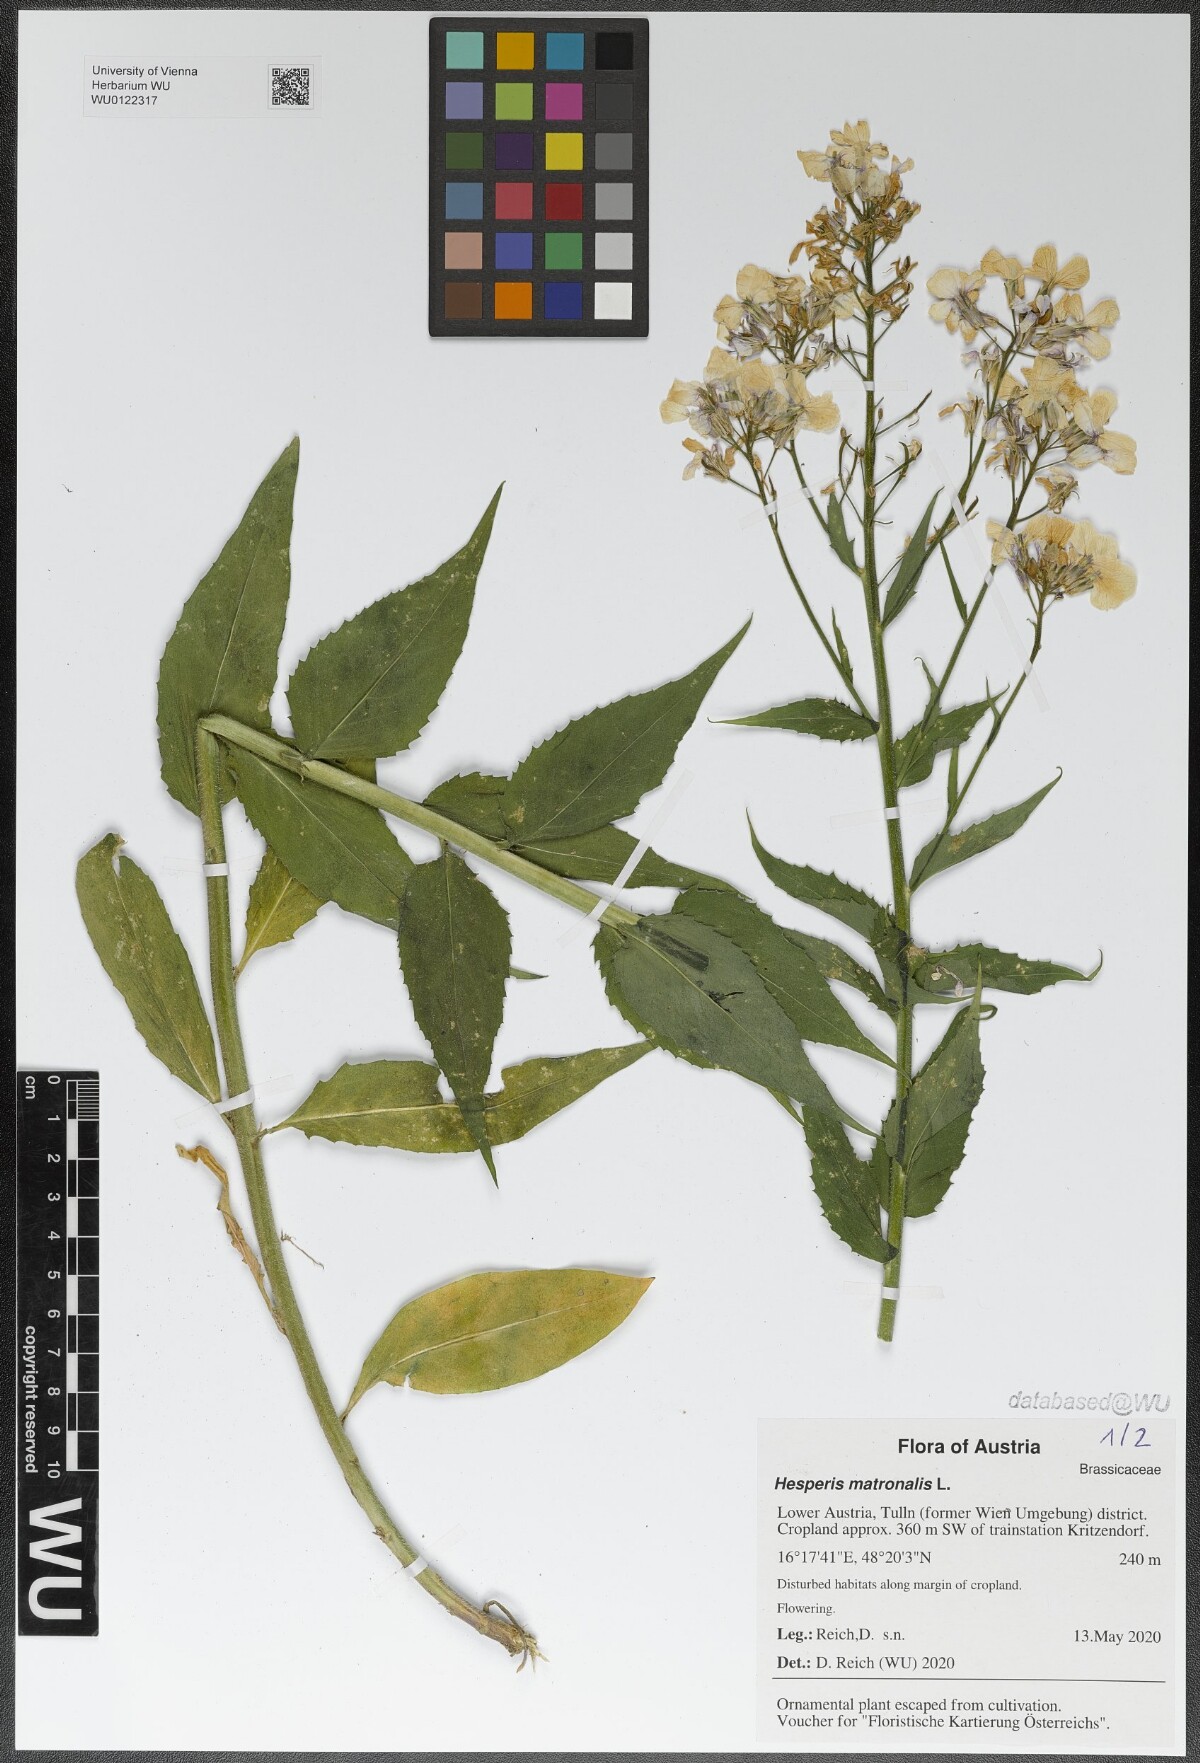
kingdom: Plantae
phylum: Tracheophyta
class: Magnoliopsida
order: Brassicales
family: Brassicaceae
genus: Hesperis
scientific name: Hesperis matronalis
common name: Dame's-violet
